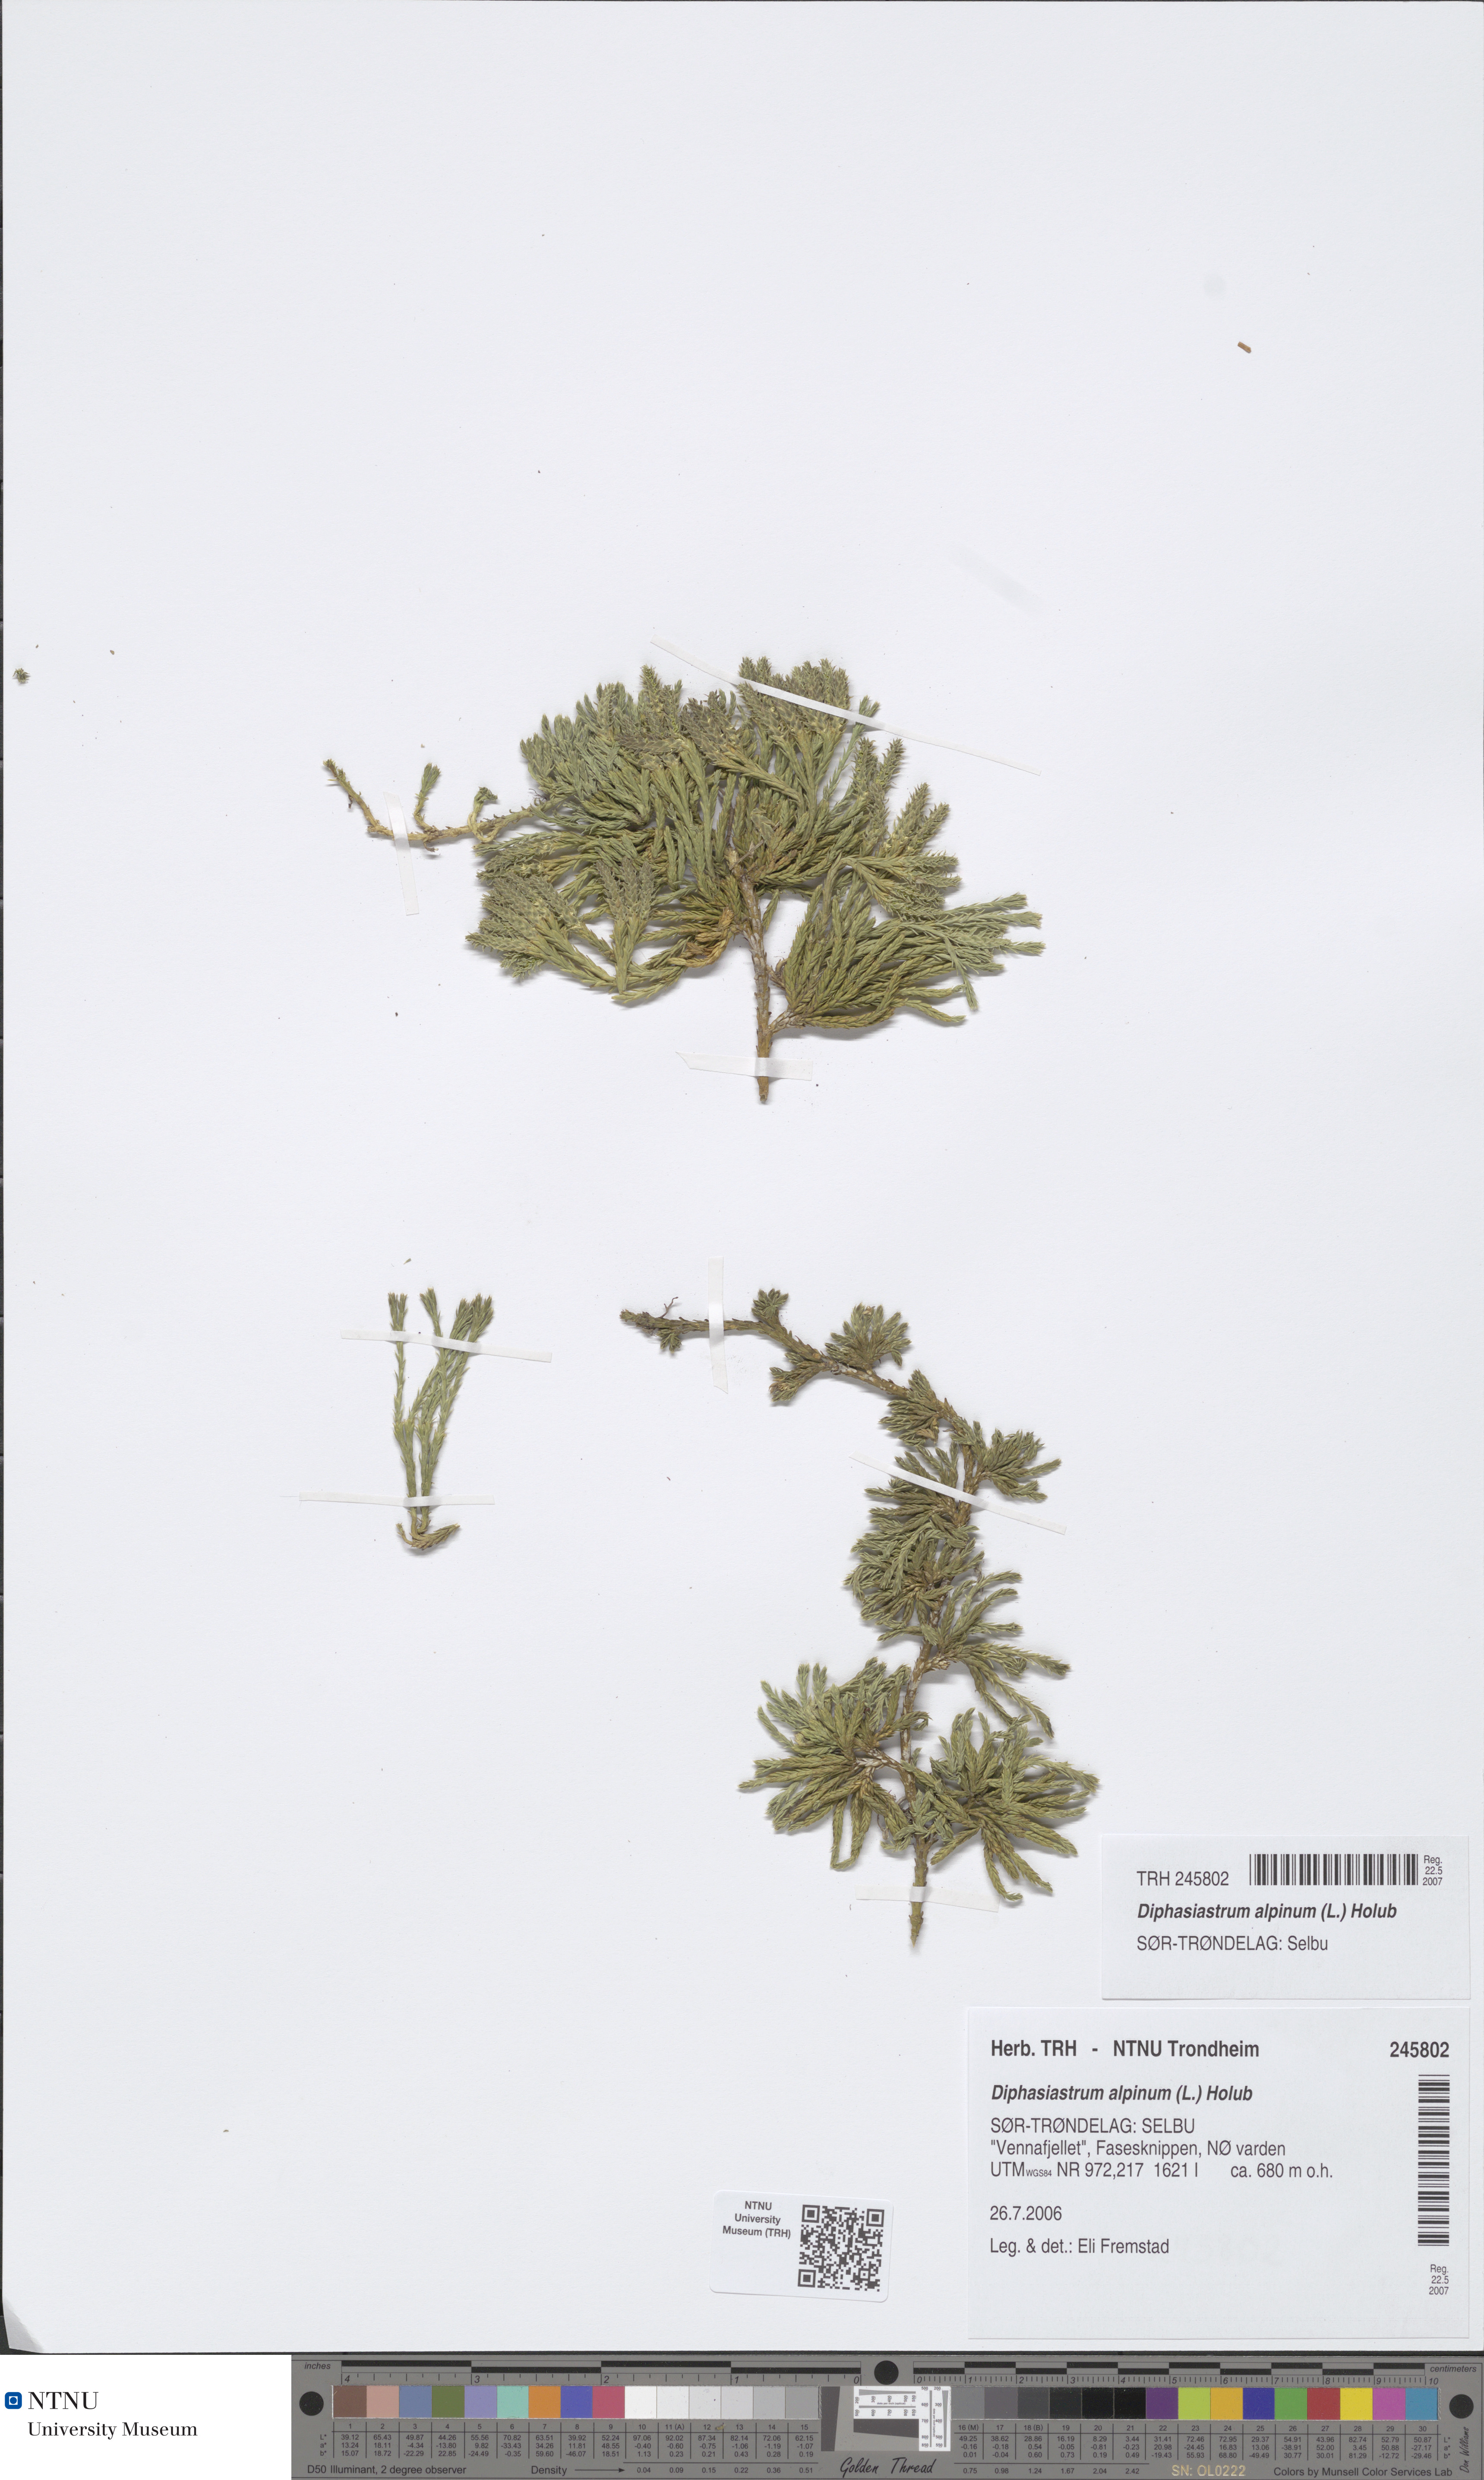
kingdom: Plantae
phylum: Tracheophyta
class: Lycopodiopsida
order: Lycopodiales
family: Lycopodiaceae
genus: Diphasiastrum
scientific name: Diphasiastrum alpinum
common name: Alpine clubmoss
